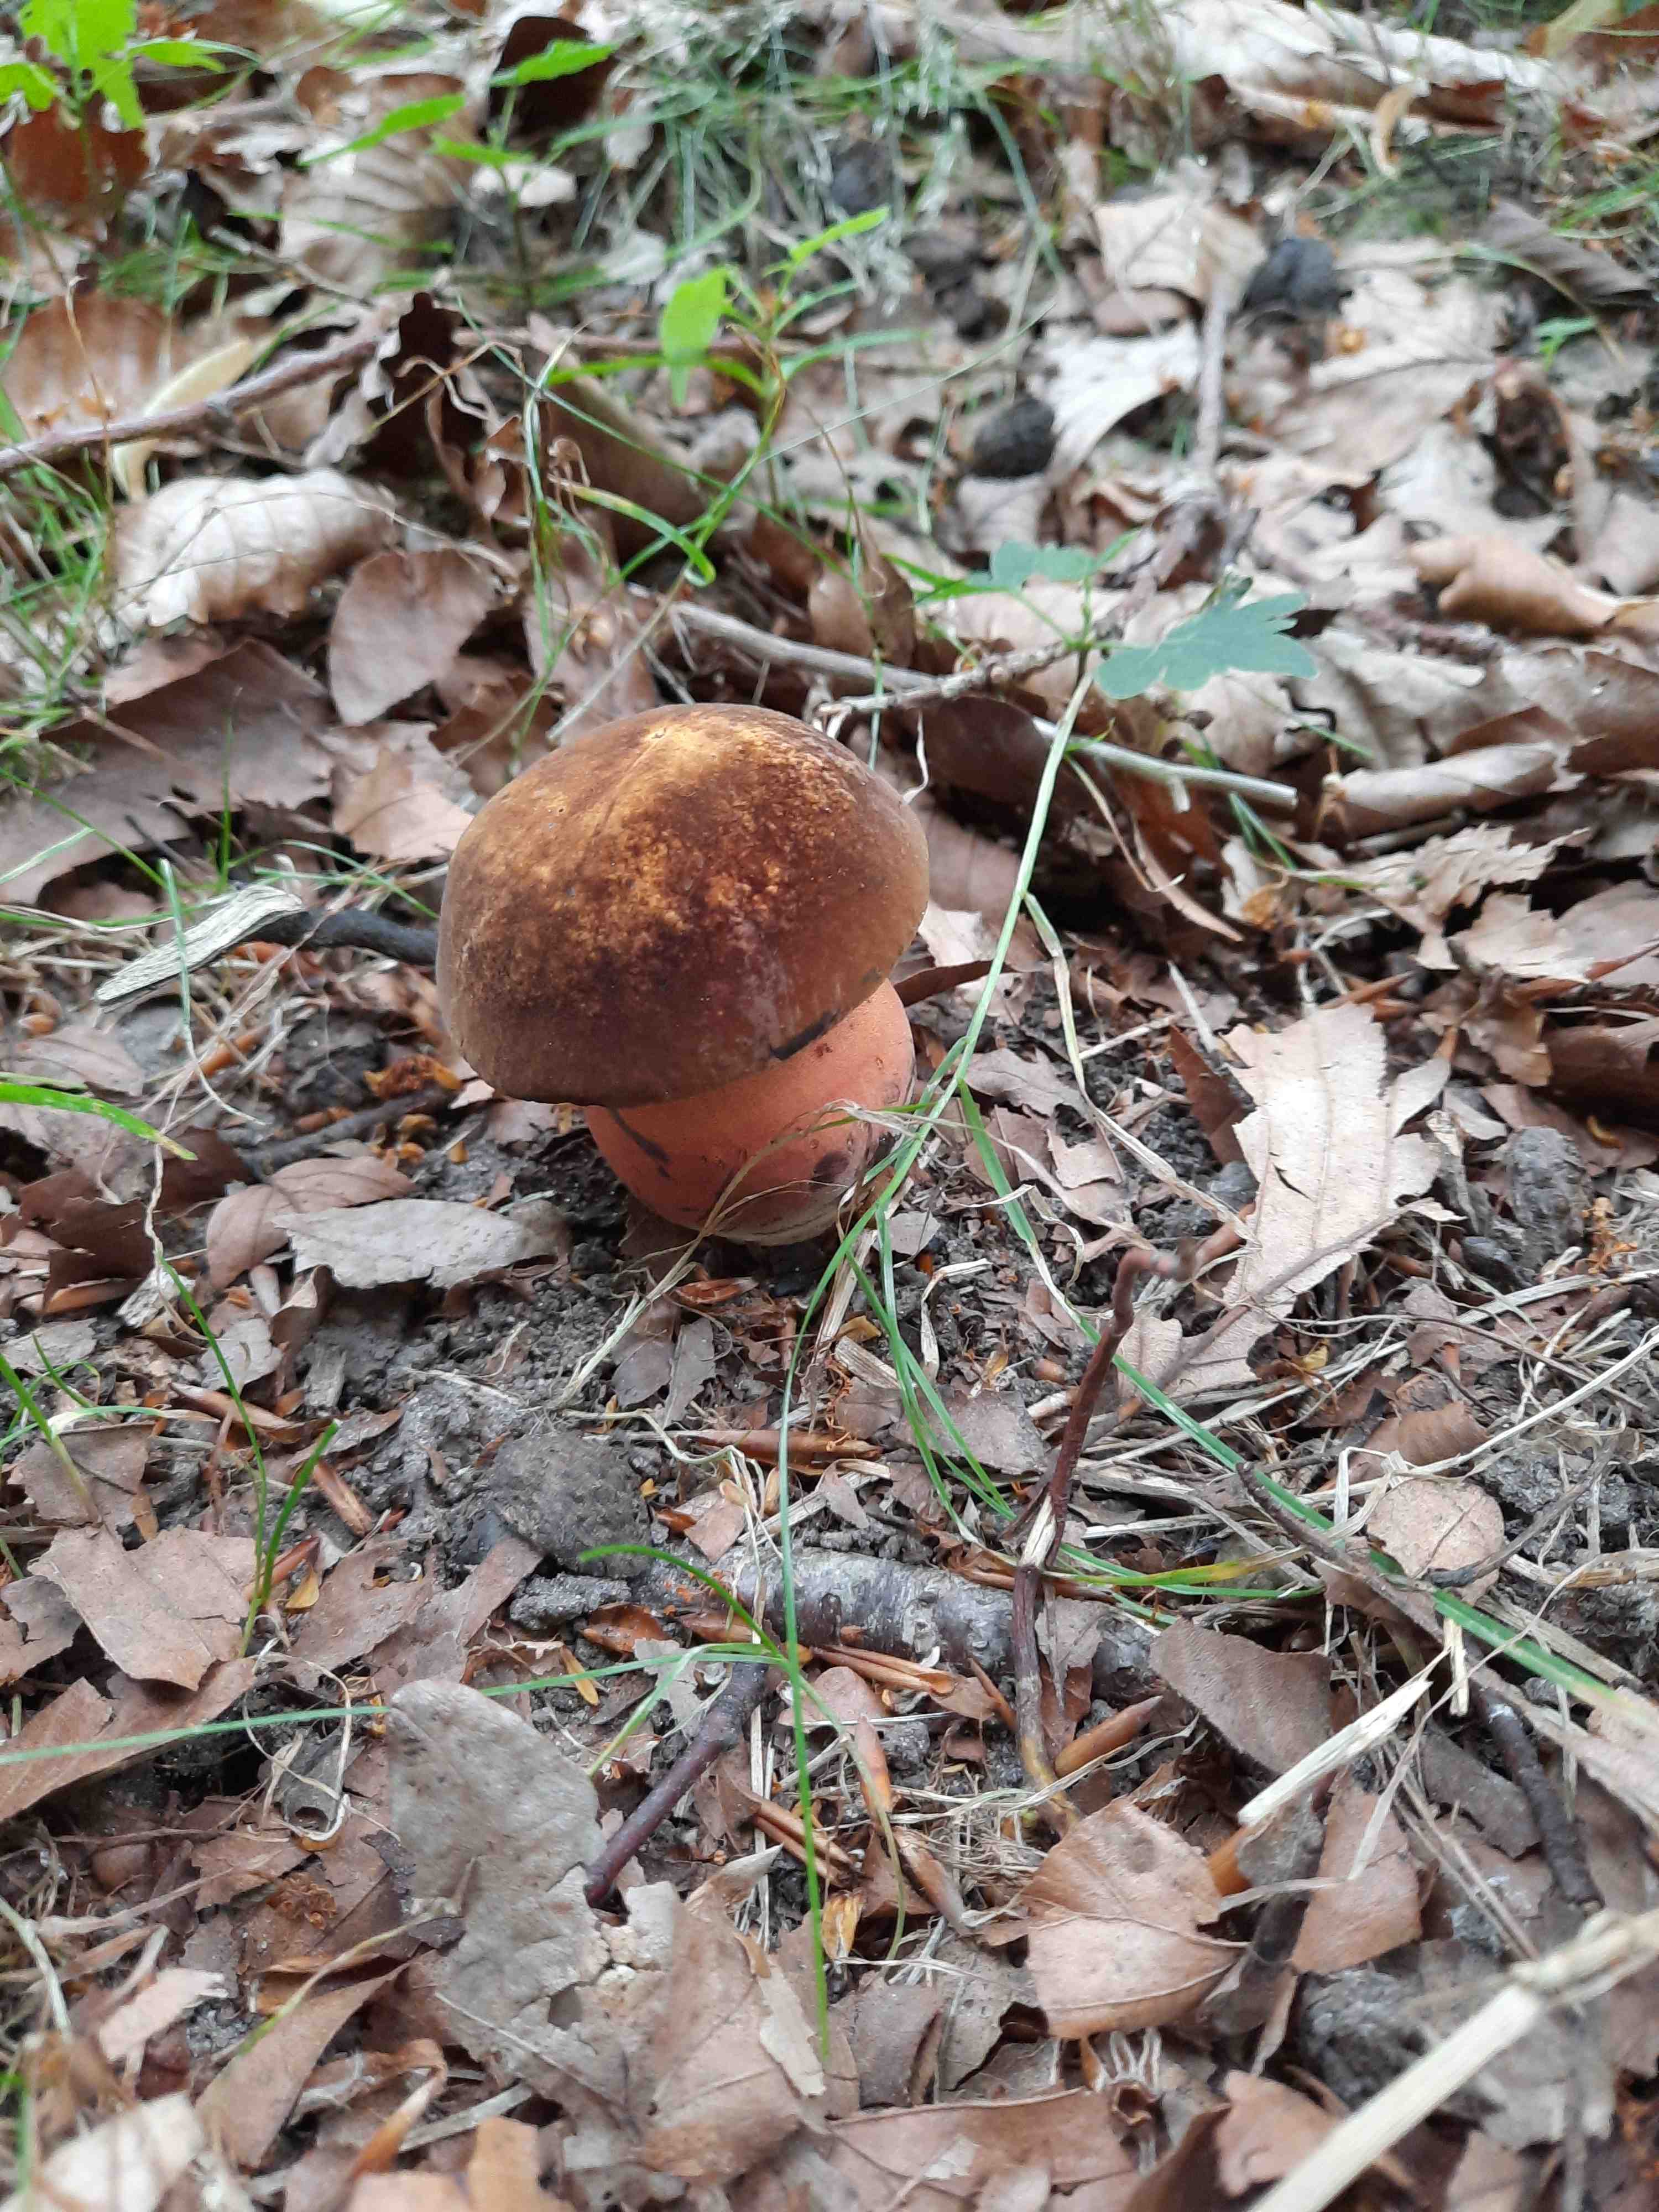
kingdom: Fungi
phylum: Basidiomycota
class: Agaricomycetes
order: Boletales
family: Boletaceae
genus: Neoboletus
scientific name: Neoboletus erythropus
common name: punktstokket indigorørhat
